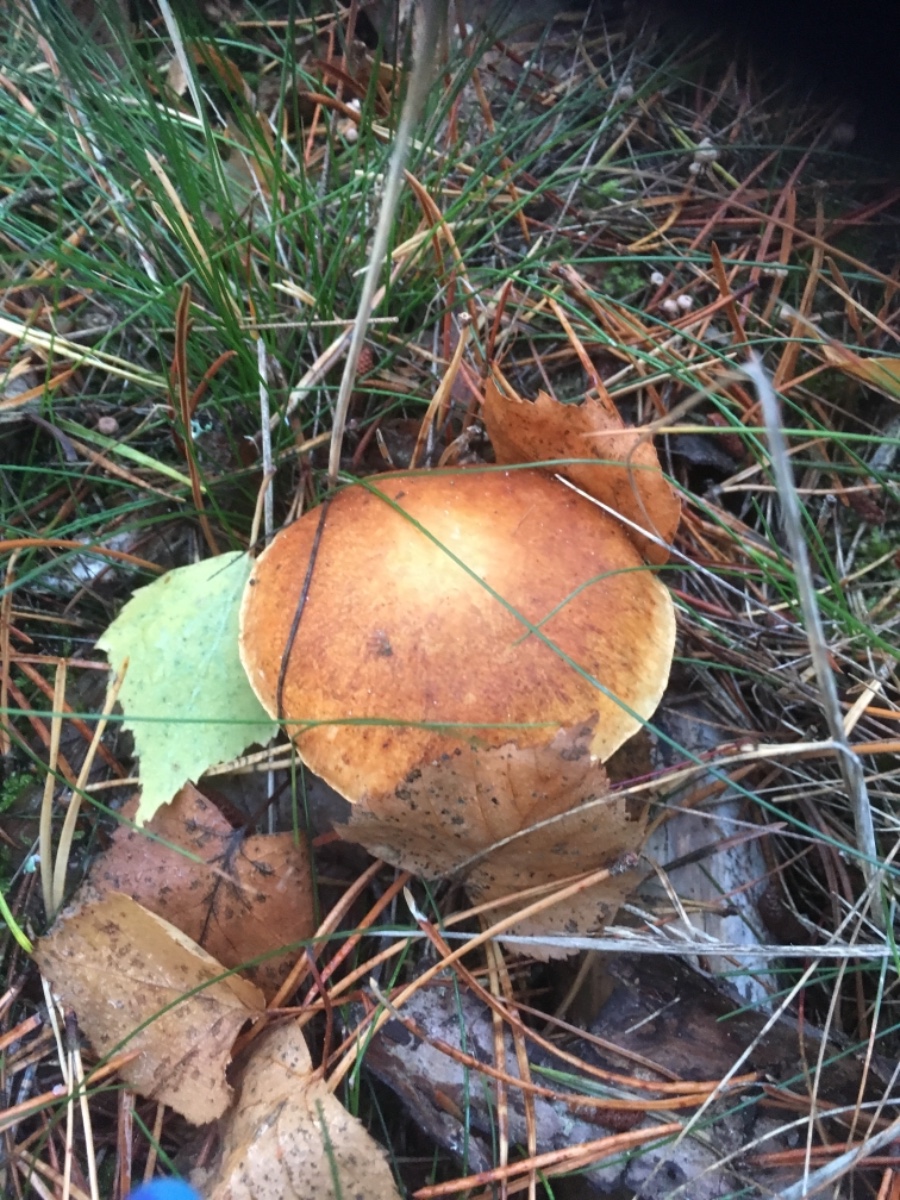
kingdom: Fungi
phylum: Basidiomycota
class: Agaricomycetes
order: Agaricales
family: Hymenogastraceae
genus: Gymnopilus
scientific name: Gymnopilus penetrans
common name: plettet flammehat
